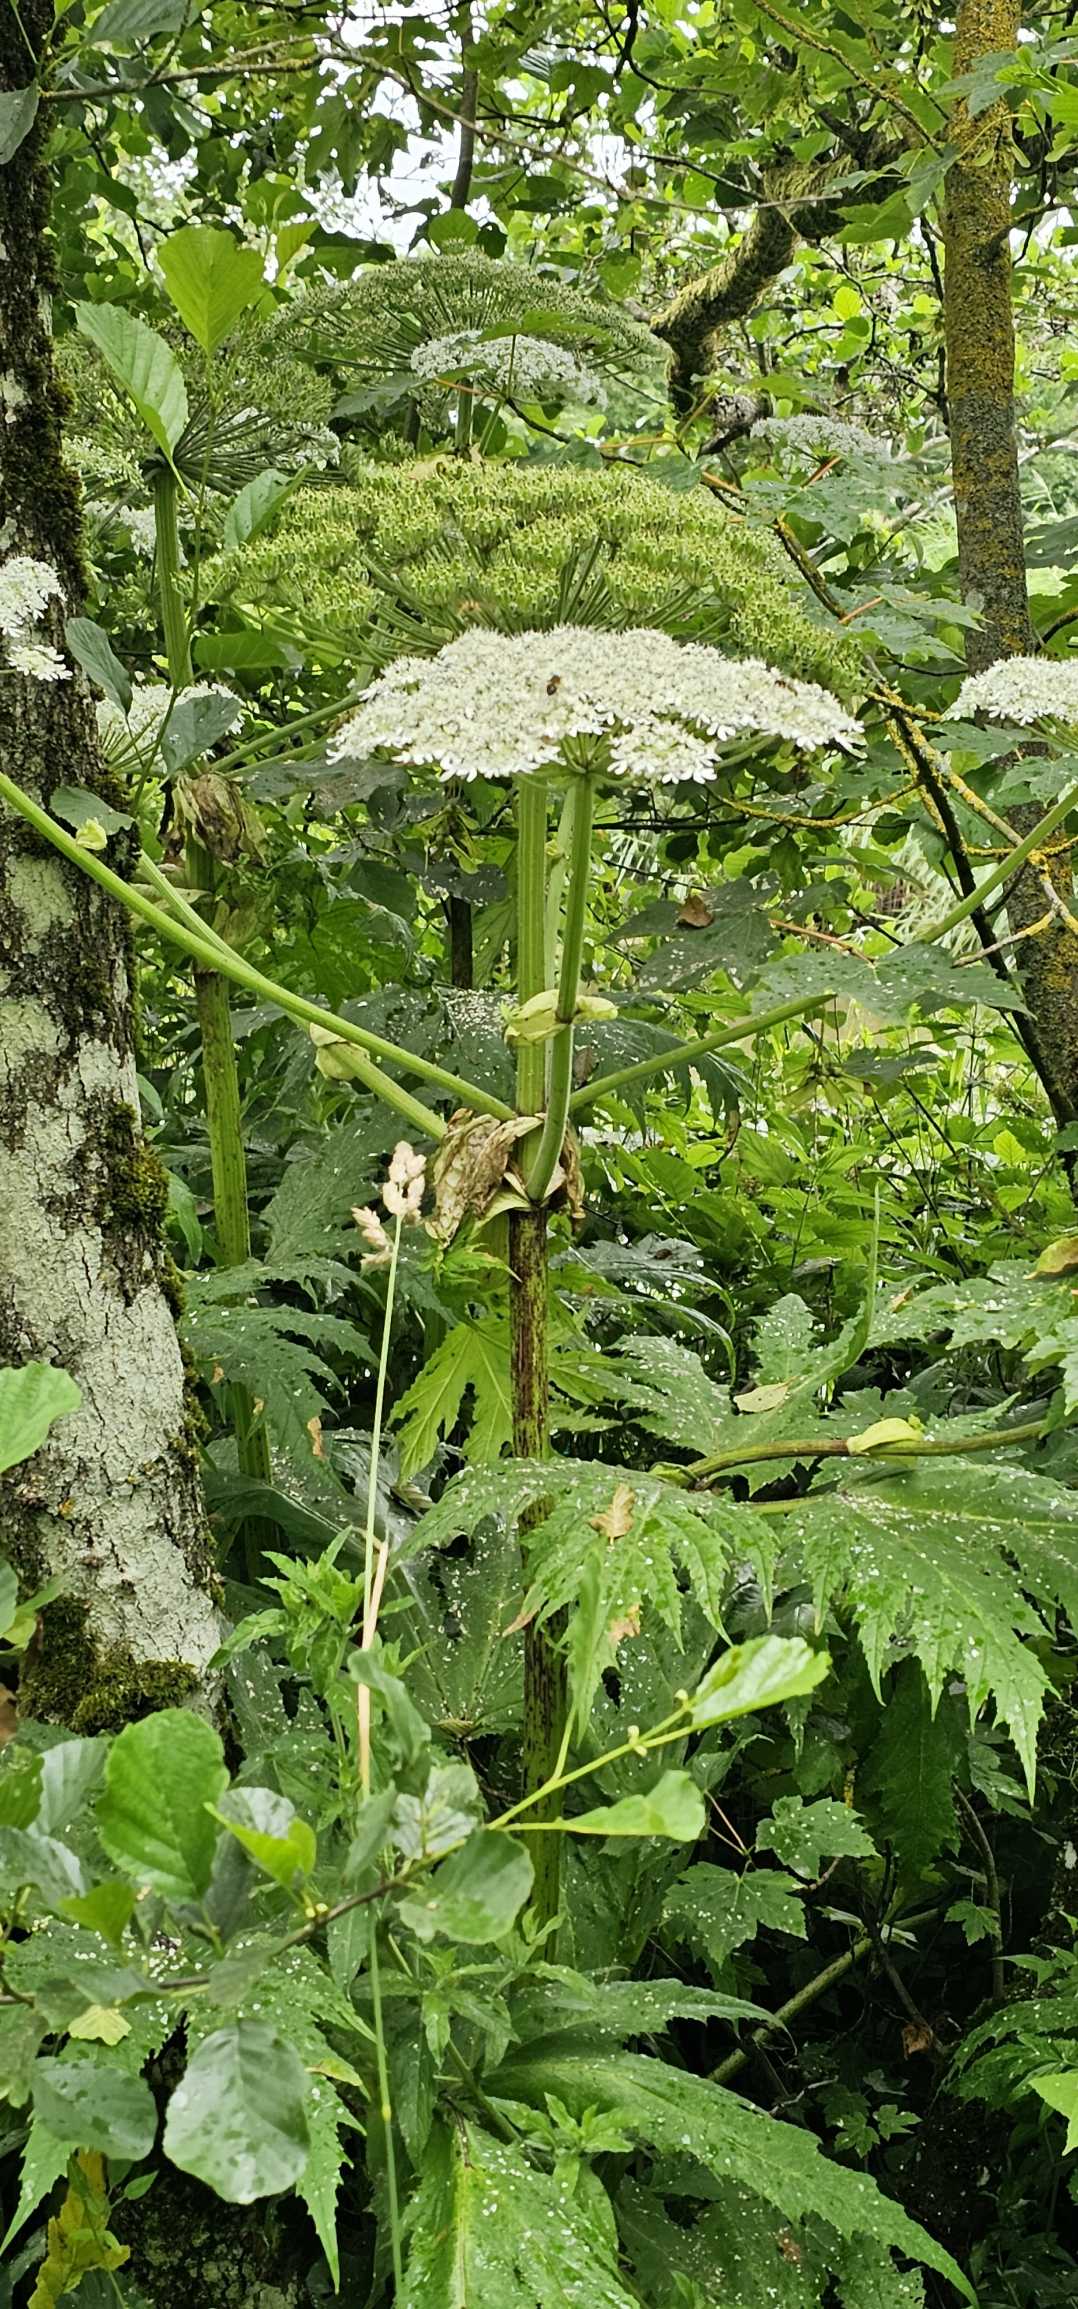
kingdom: Plantae
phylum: Tracheophyta
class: Magnoliopsida
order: Apiales
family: Apiaceae
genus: Heracleum
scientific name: Heracleum mantegazzianum
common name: Kæmpe-bjørneklo
